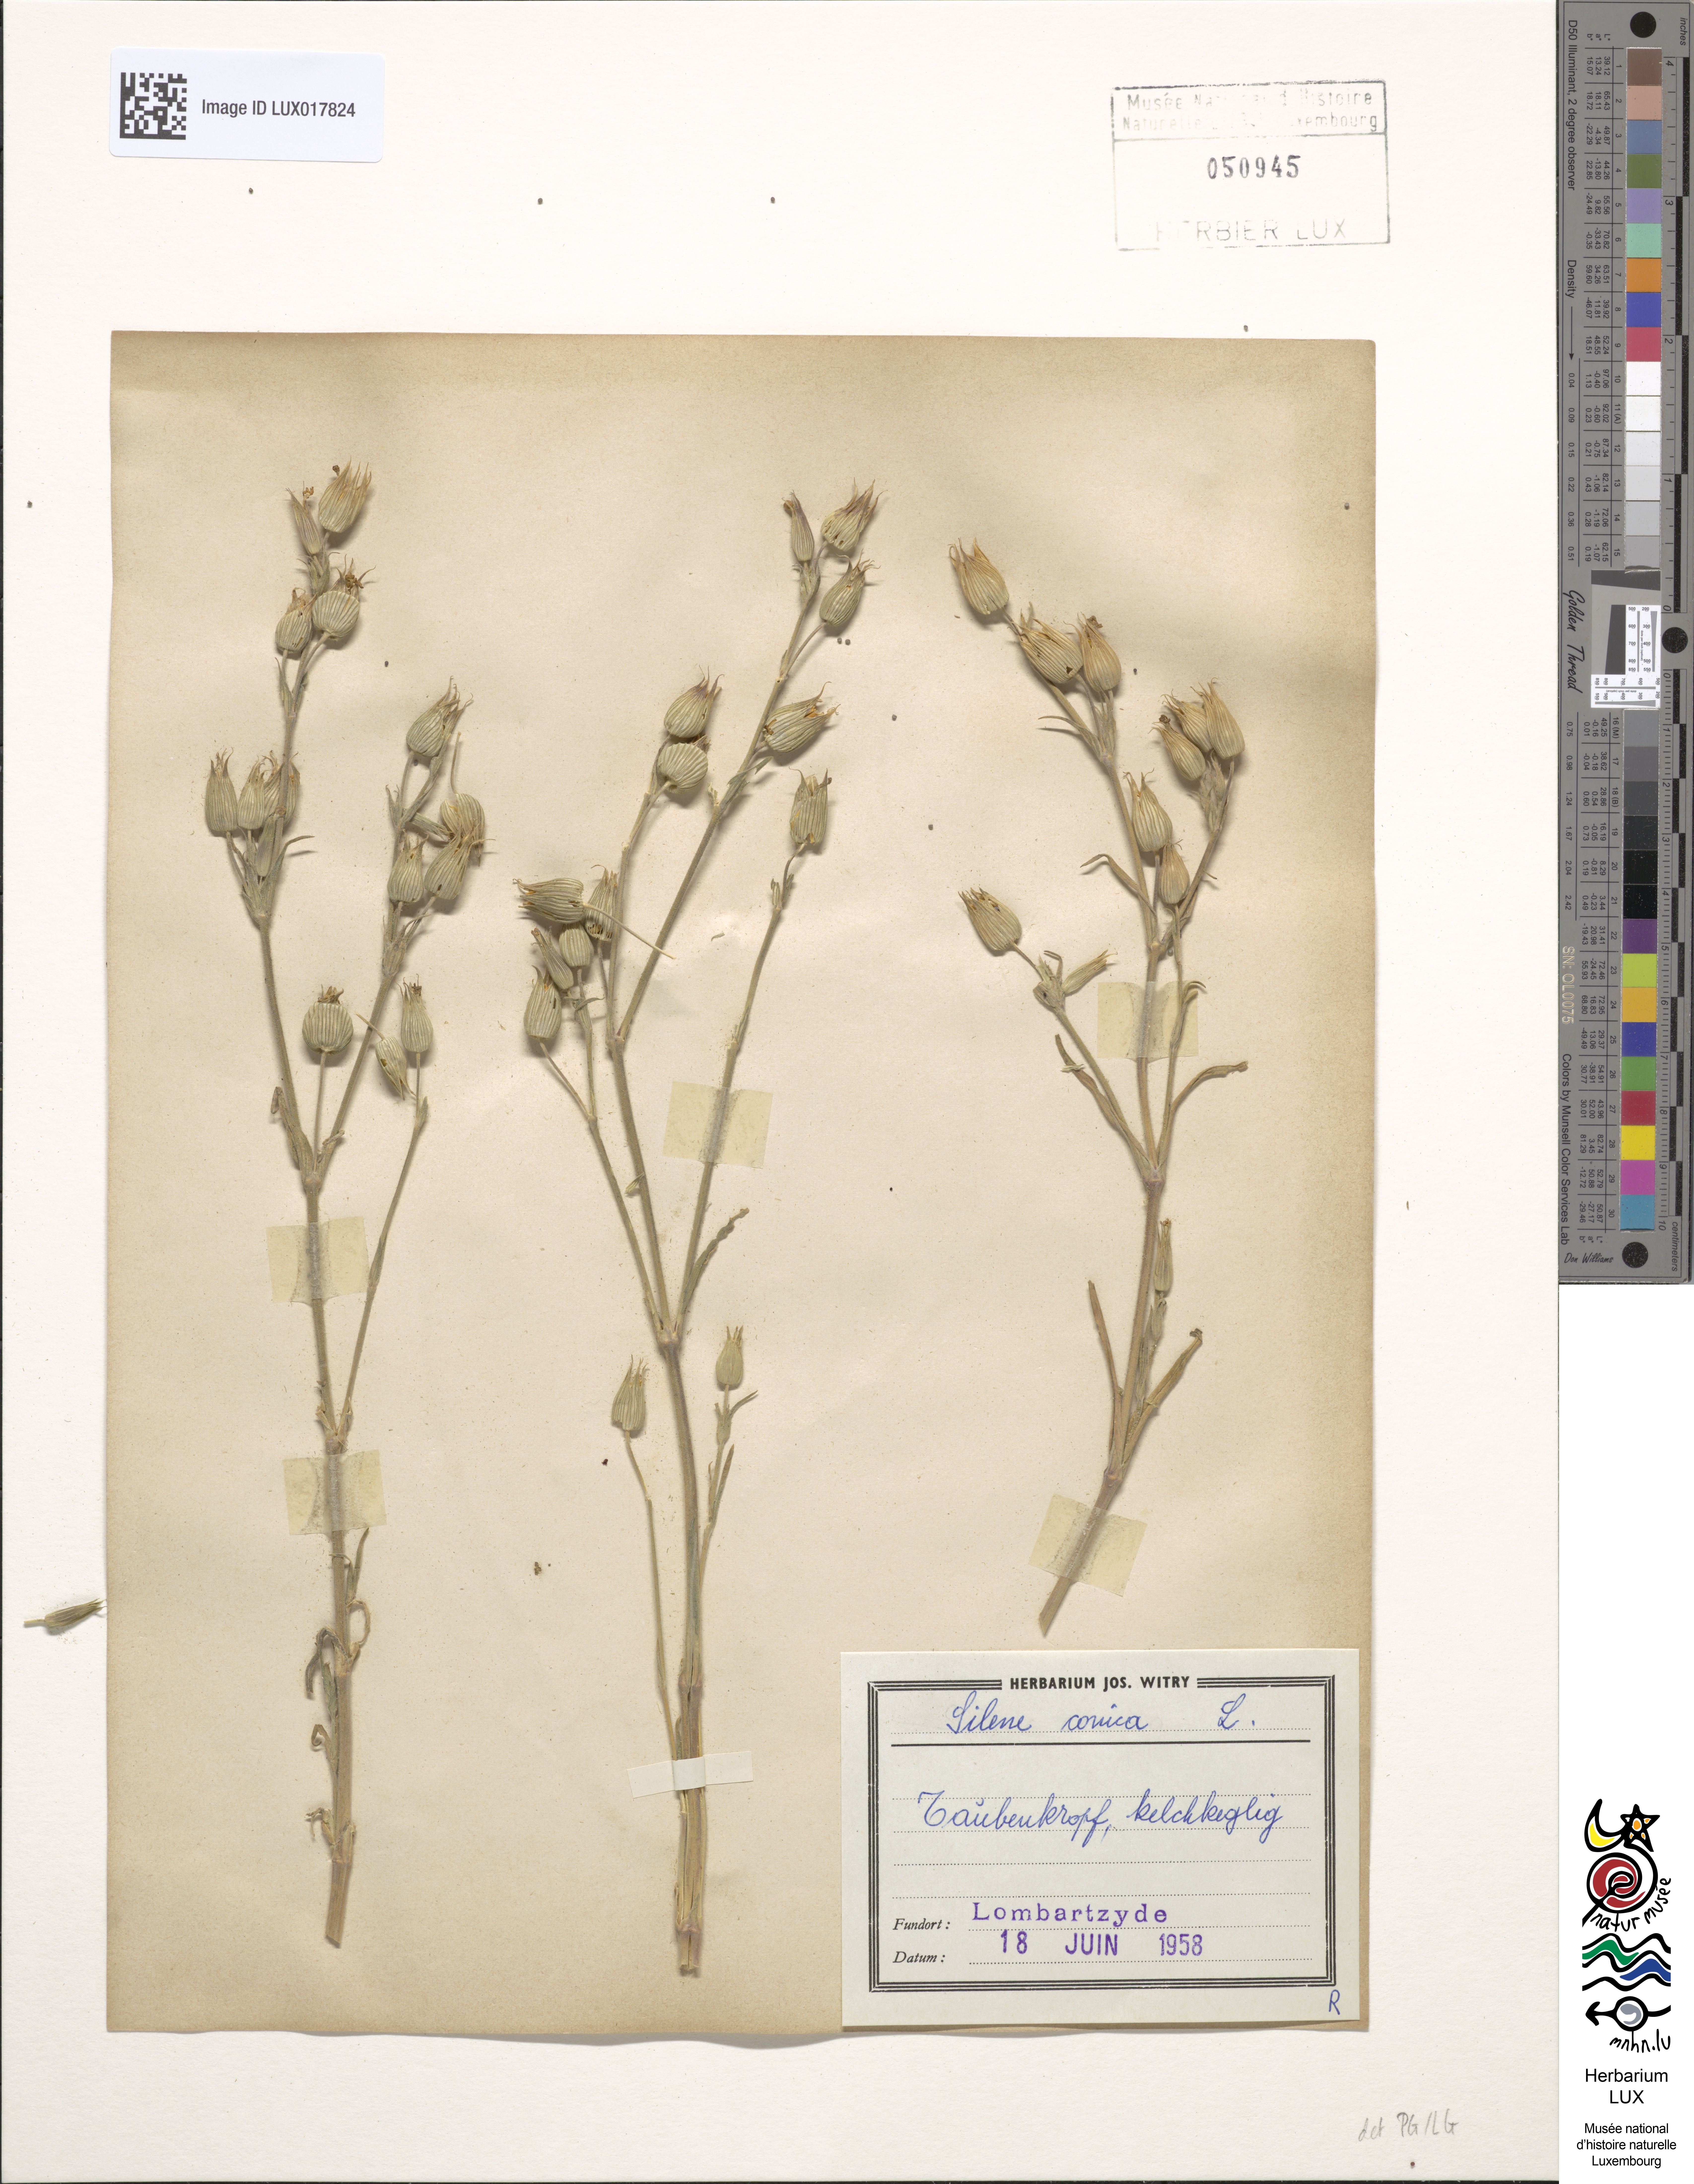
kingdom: Plantae
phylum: Tracheophyta
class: Magnoliopsida
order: Caryophyllales
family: Caryophyllaceae
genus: Silene
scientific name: Silene conica
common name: Sand catchfly
